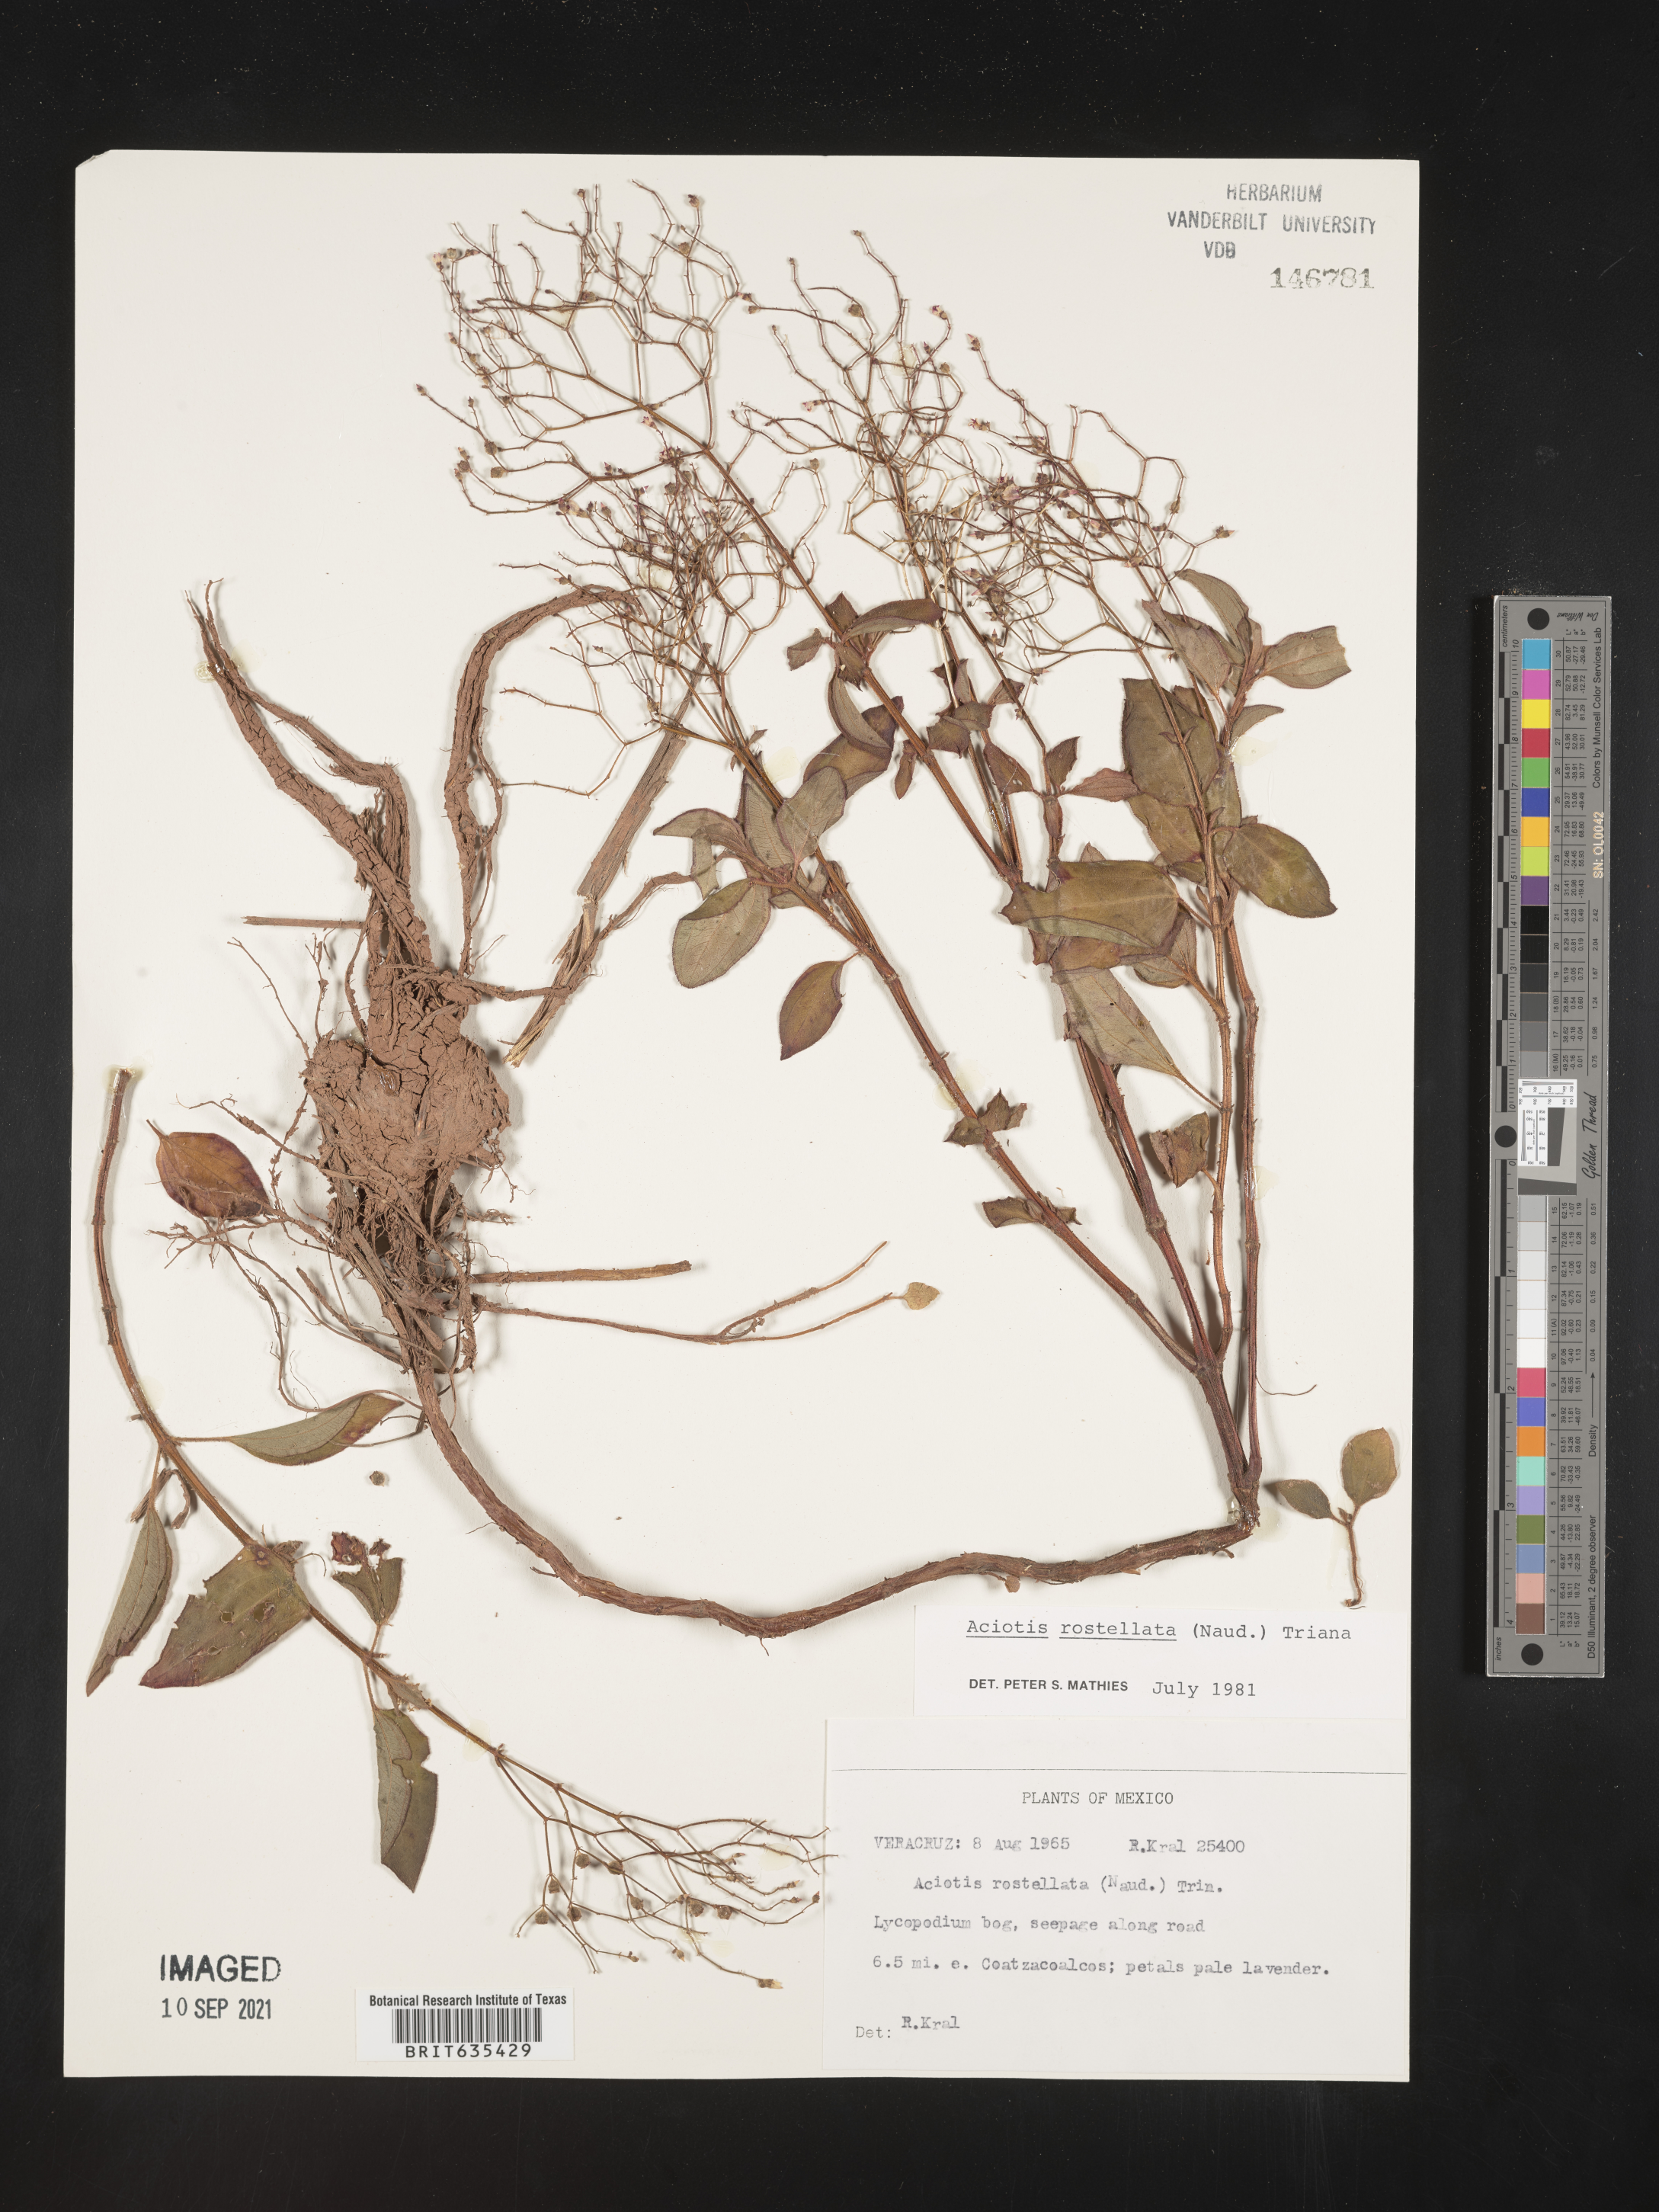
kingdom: Plantae
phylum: Tracheophyta
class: Magnoliopsida
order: Myrtales
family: Melastomataceae
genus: Aciotis
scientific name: Aciotis indecora
